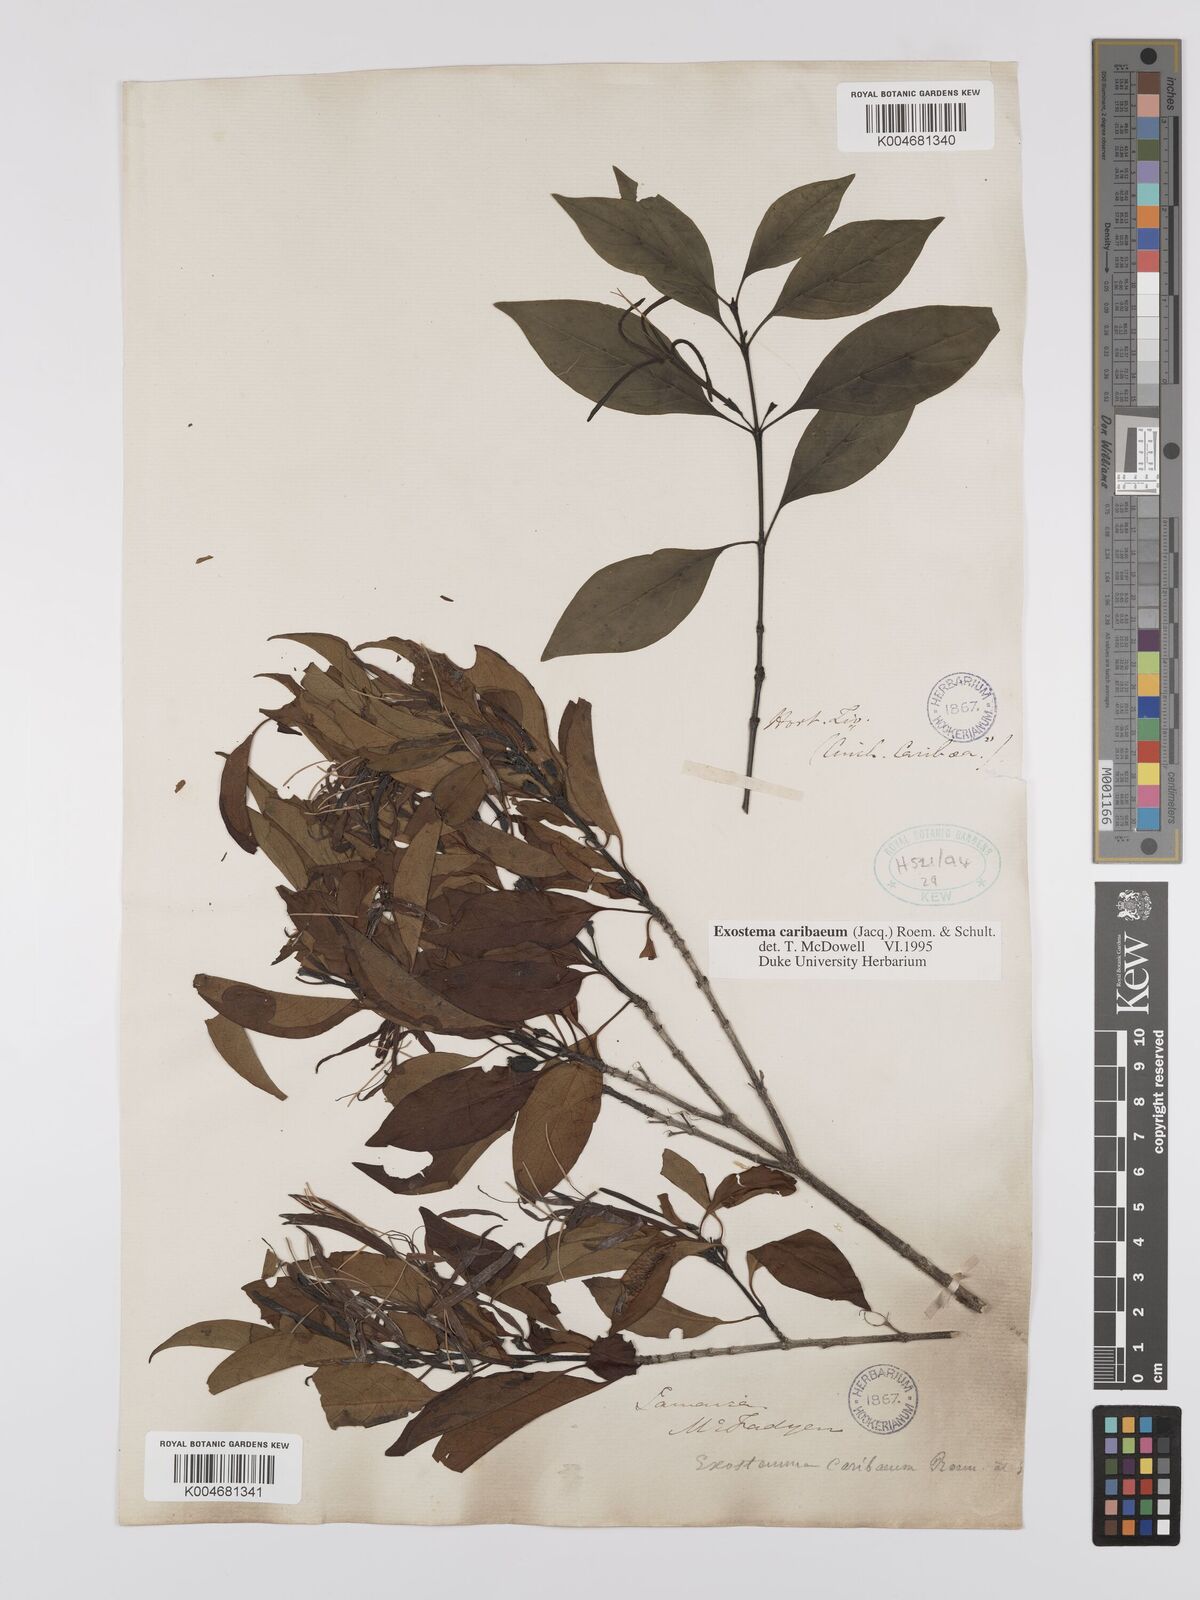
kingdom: Plantae
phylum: Tracheophyta
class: Magnoliopsida
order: Gentianales
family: Rubiaceae
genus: Exostema
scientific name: Exostema caribaeum
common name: Princewood
